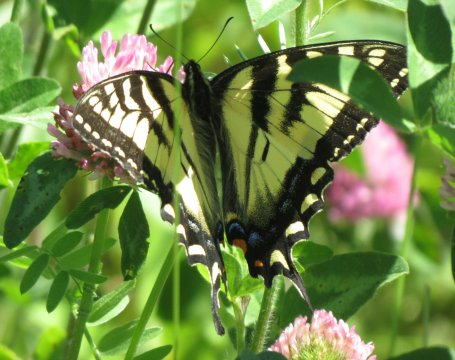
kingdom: Animalia
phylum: Arthropoda
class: Insecta
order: Lepidoptera
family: Papilionidae
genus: Pterourus
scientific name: Pterourus canadensis
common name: Canadian Tiger Swallowtail
